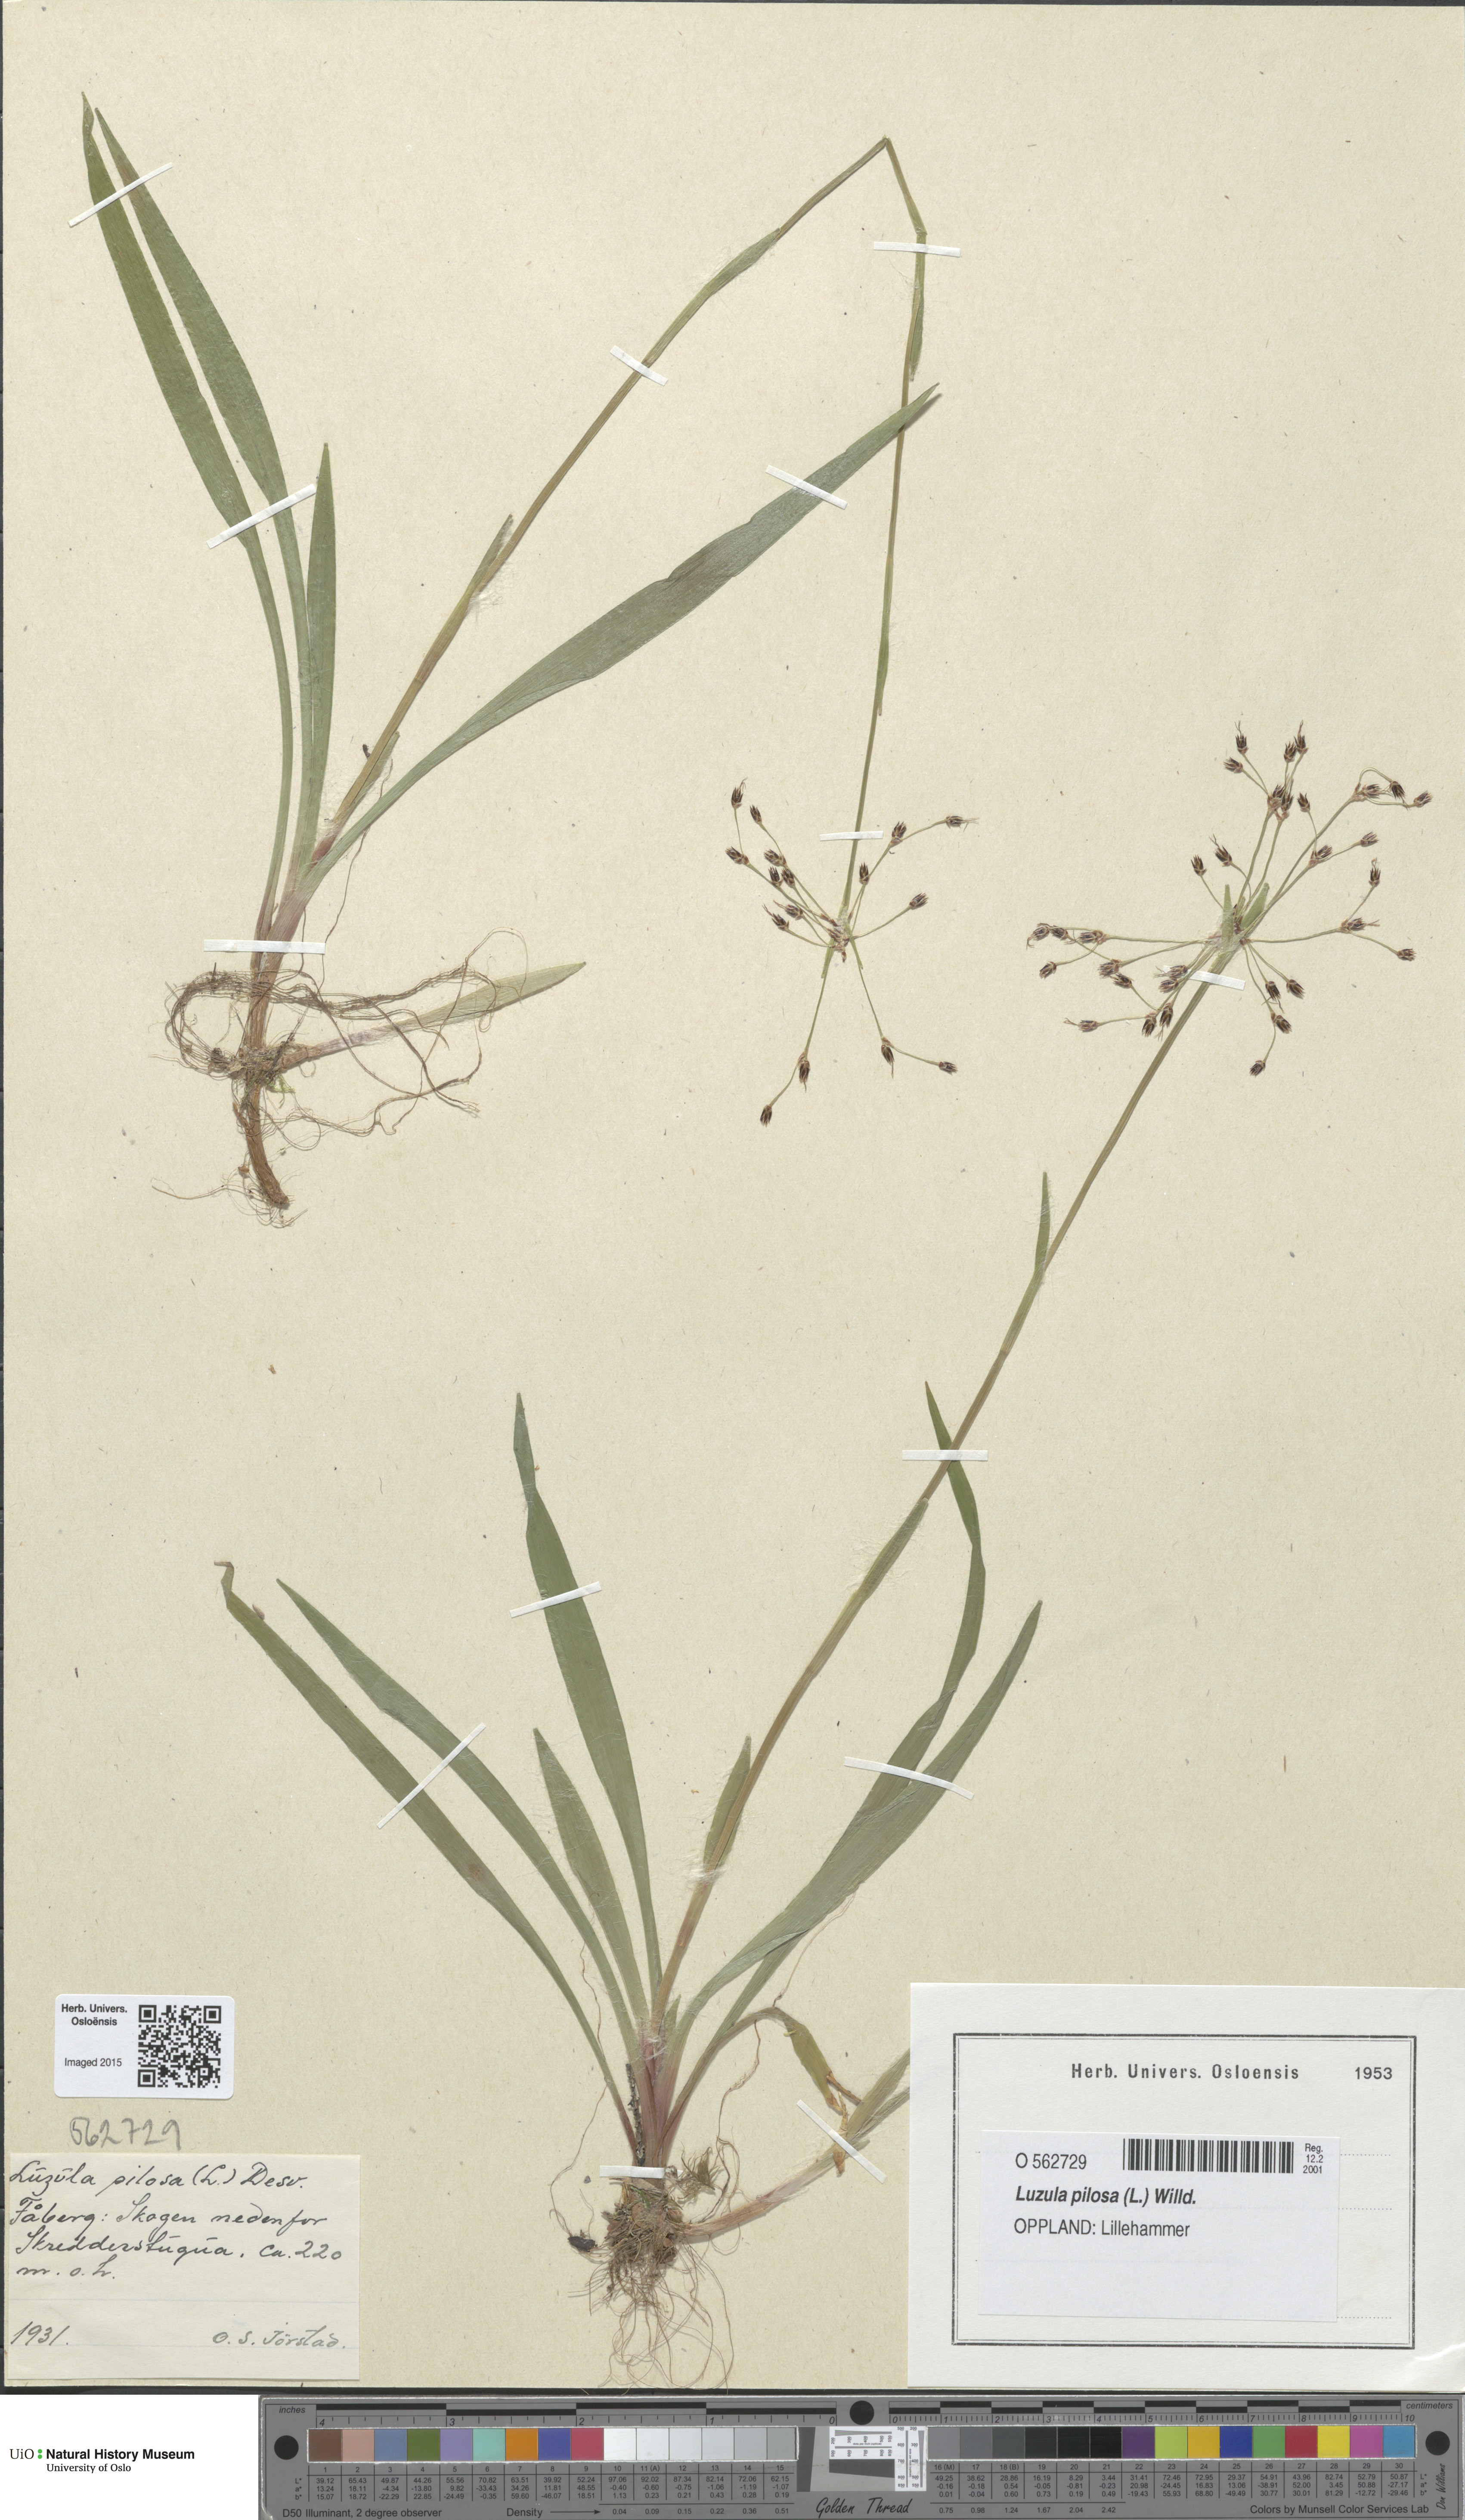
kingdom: Plantae
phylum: Tracheophyta
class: Liliopsida
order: Poales
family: Juncaceae
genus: Luzula
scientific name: Luzula pilosa
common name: Hairy wood-rush
